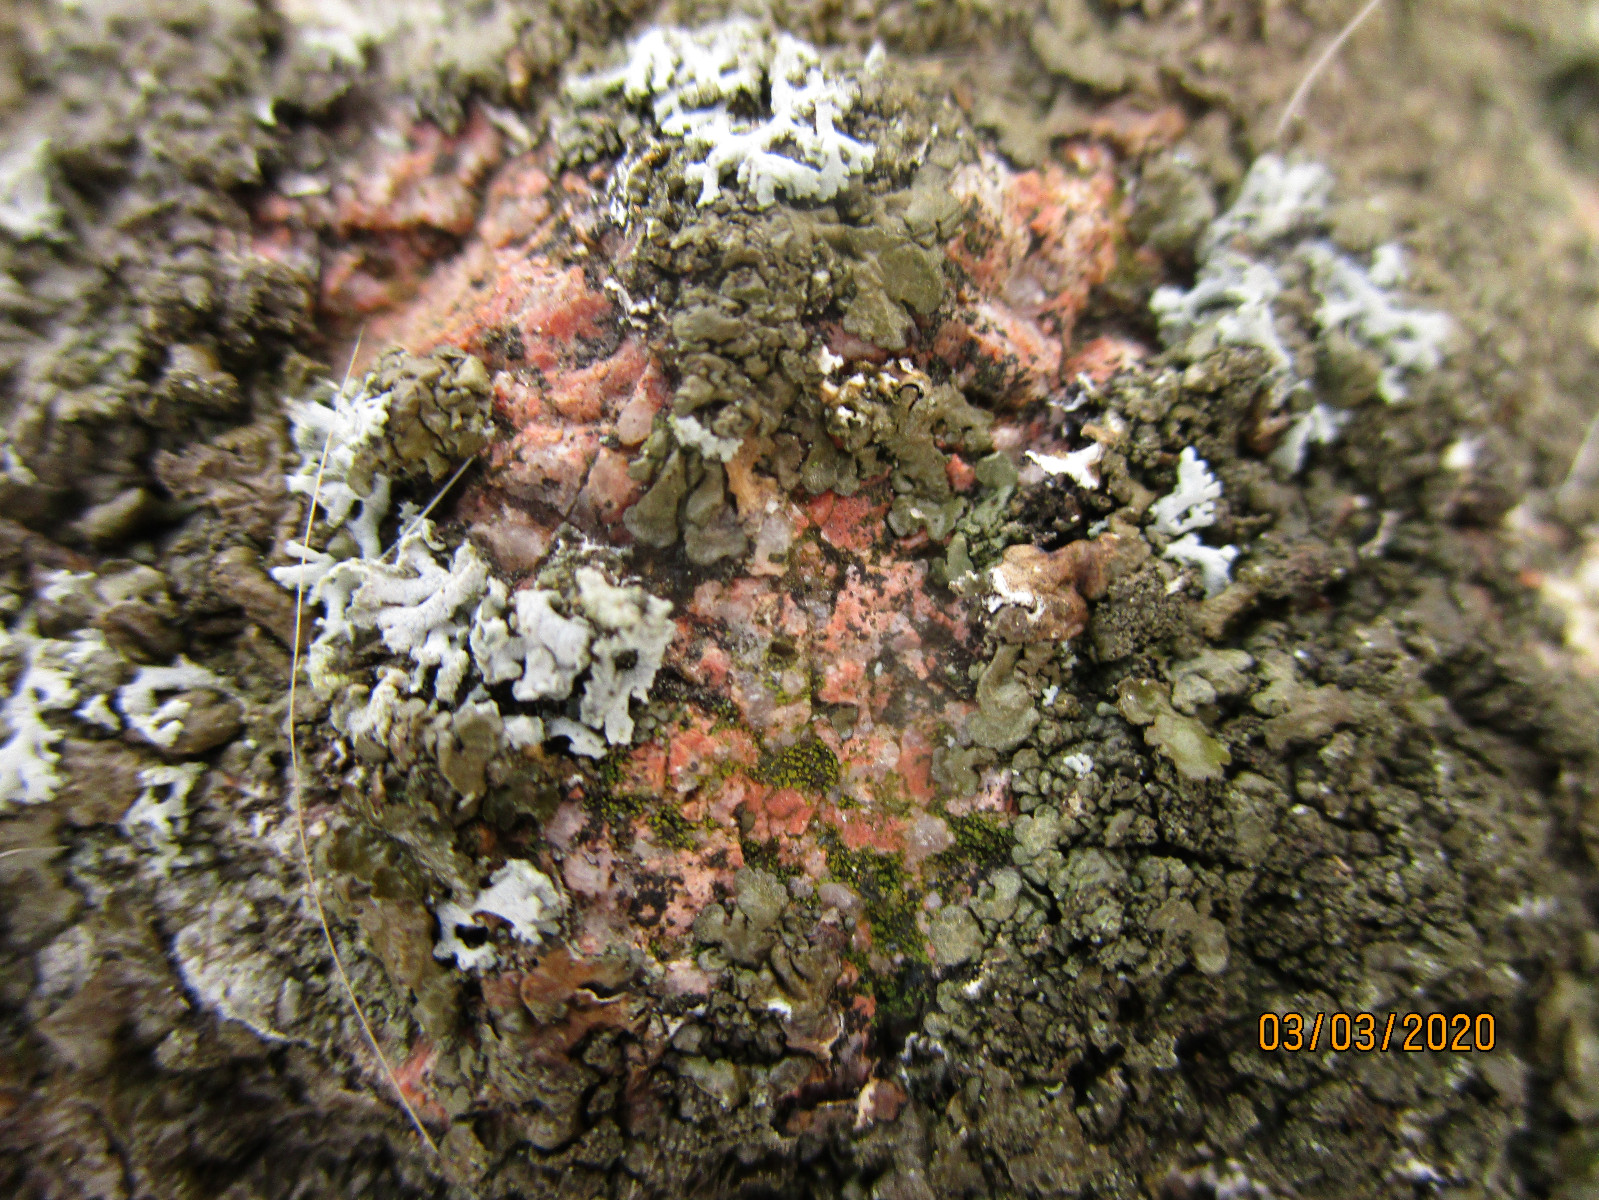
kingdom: Plantae
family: Lecanoromycetidae
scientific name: Lecanoromycetidae
